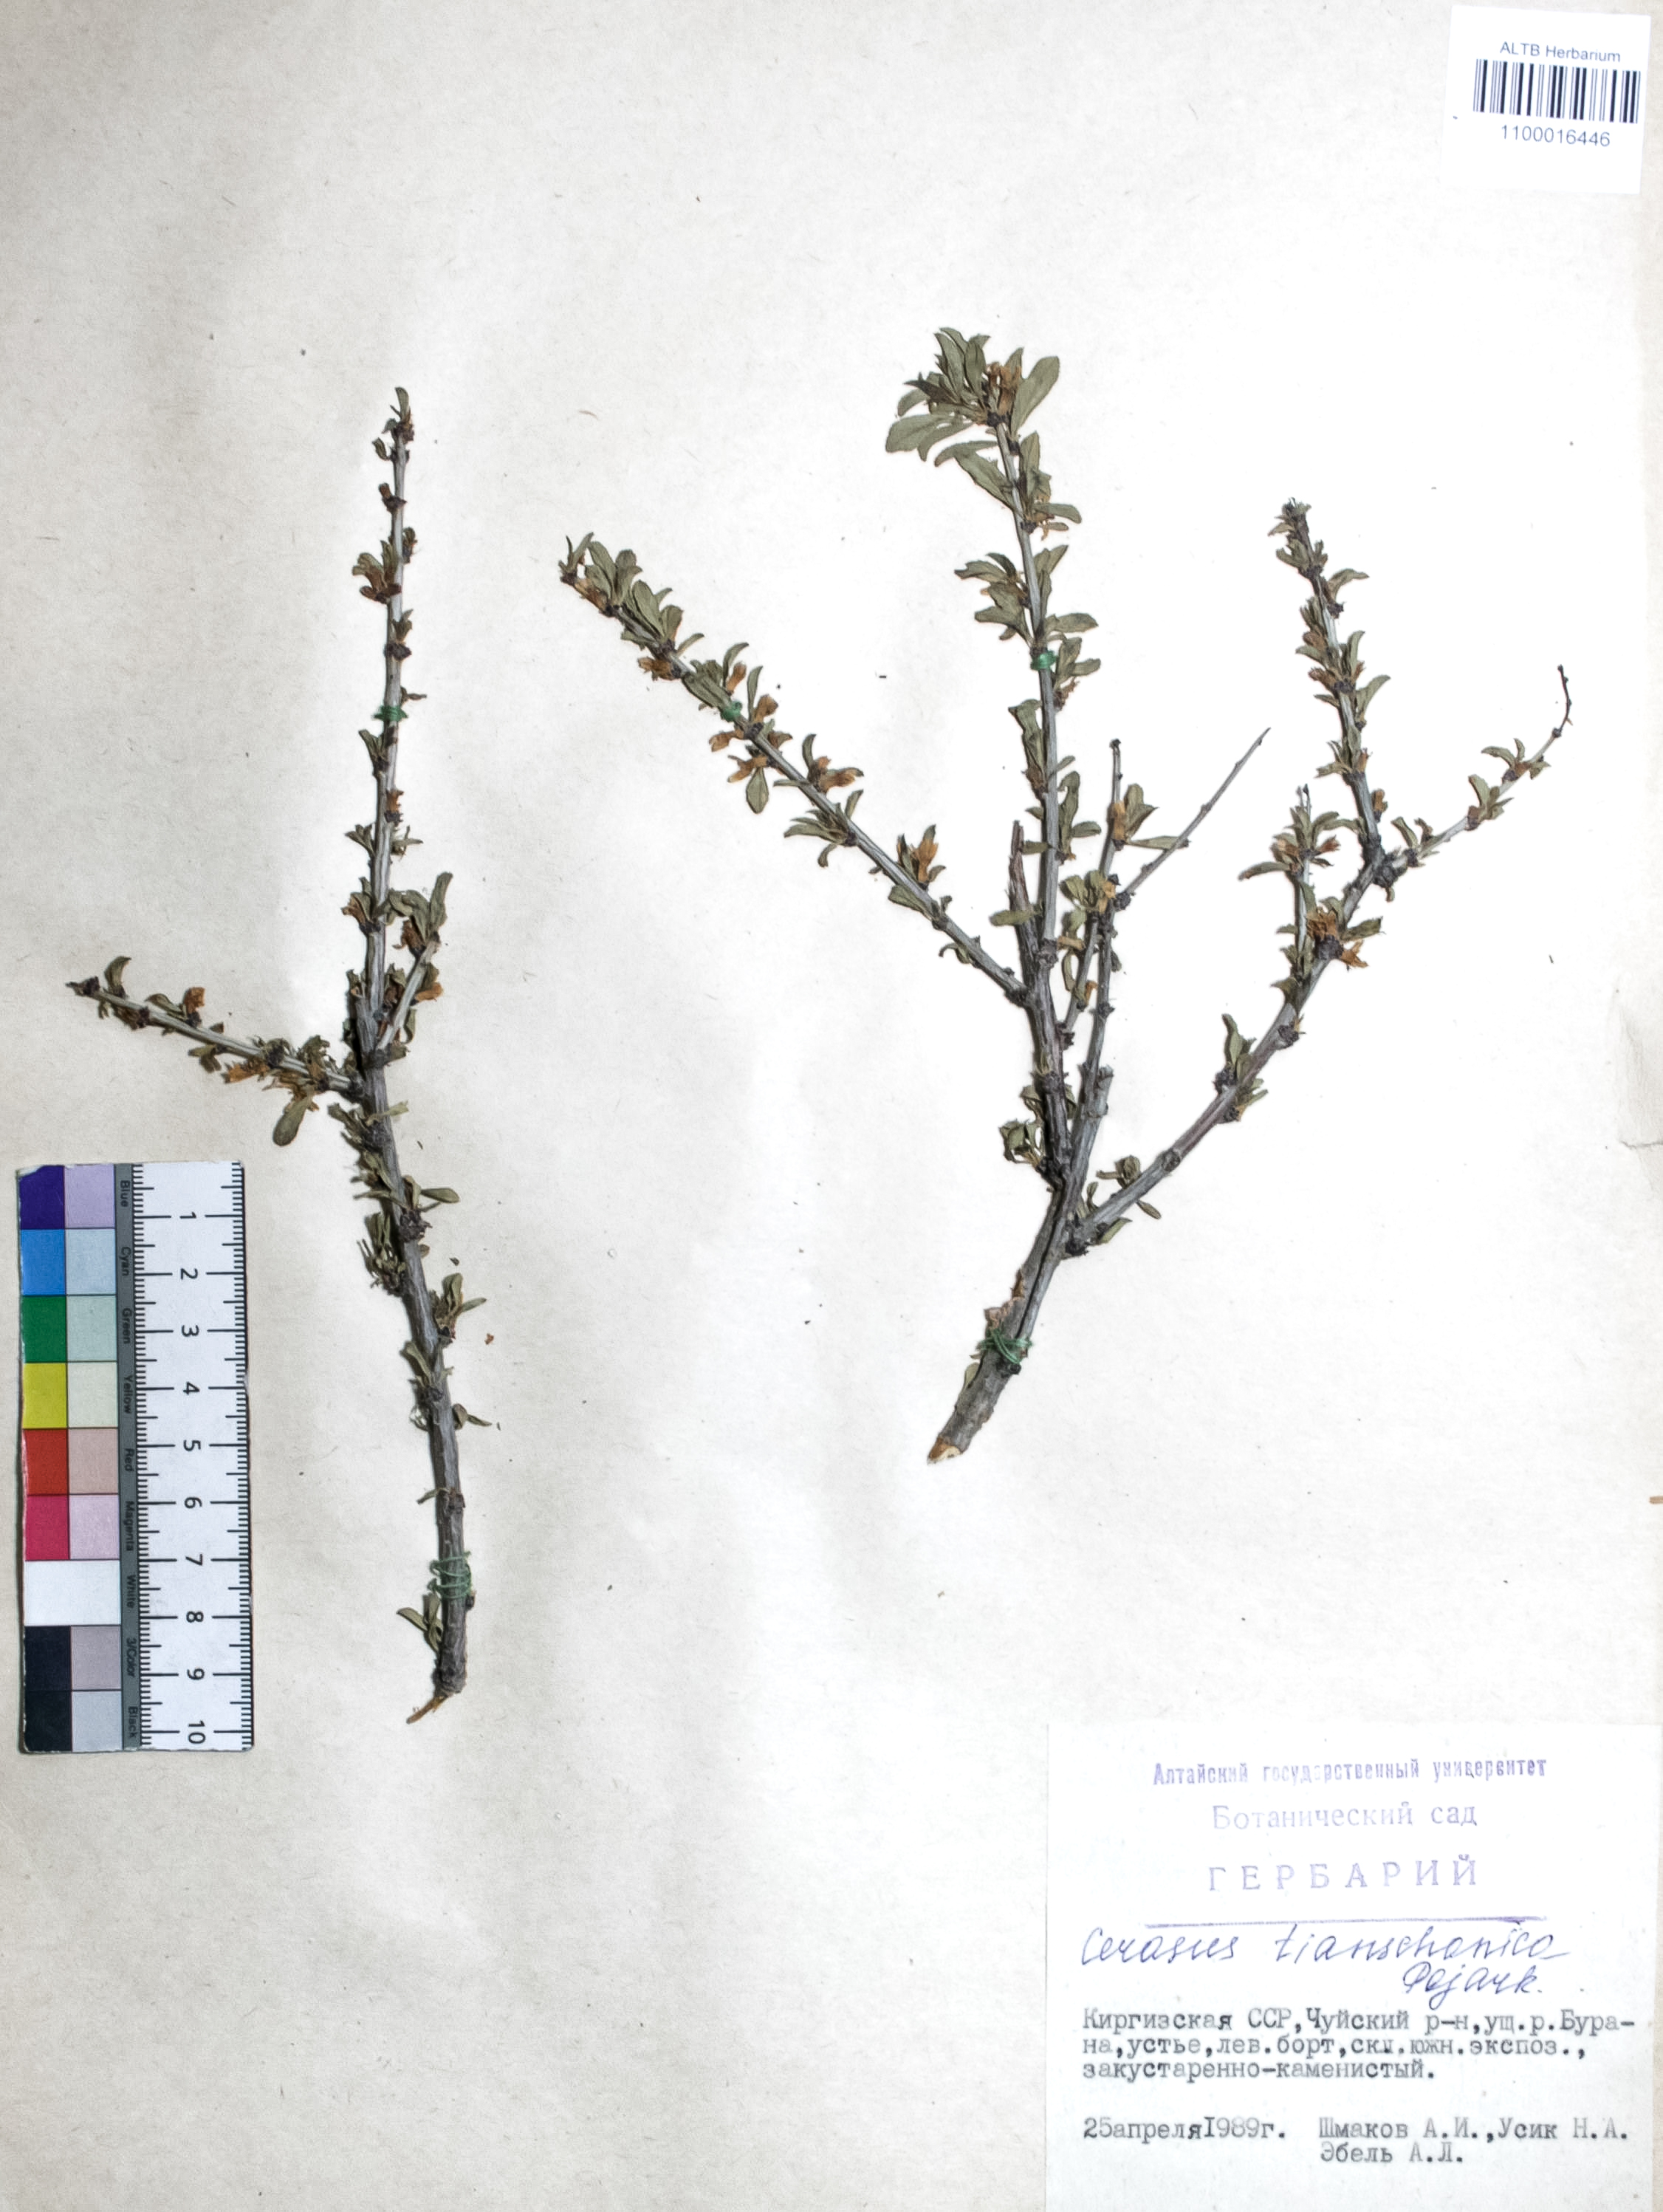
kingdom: Plantae
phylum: Tracheophyta
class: Magnoliopsida
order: Rosales
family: Rosaceae
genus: Prunus
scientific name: Prunus griffithii
